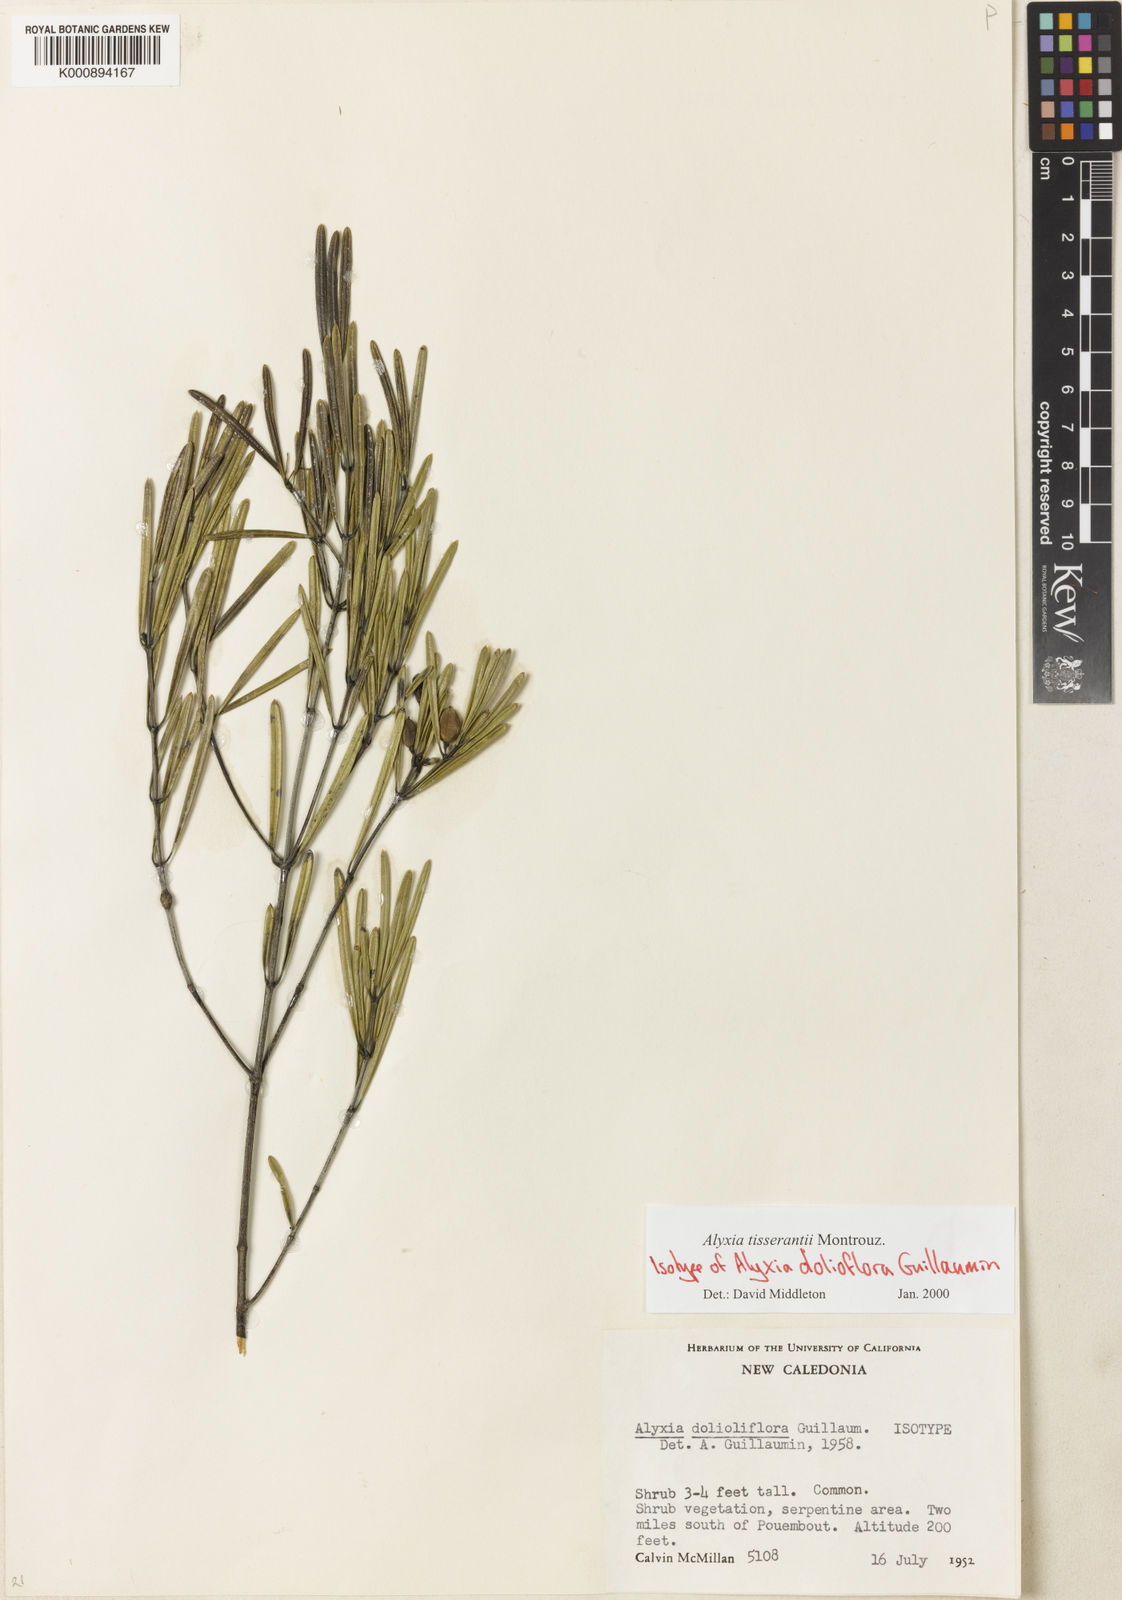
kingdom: Plantae
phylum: Tracheophyta
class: Magnoliopsida
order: Gentianales
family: Apocynaceae
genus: Alyxia
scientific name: Alyxia tisserantii
